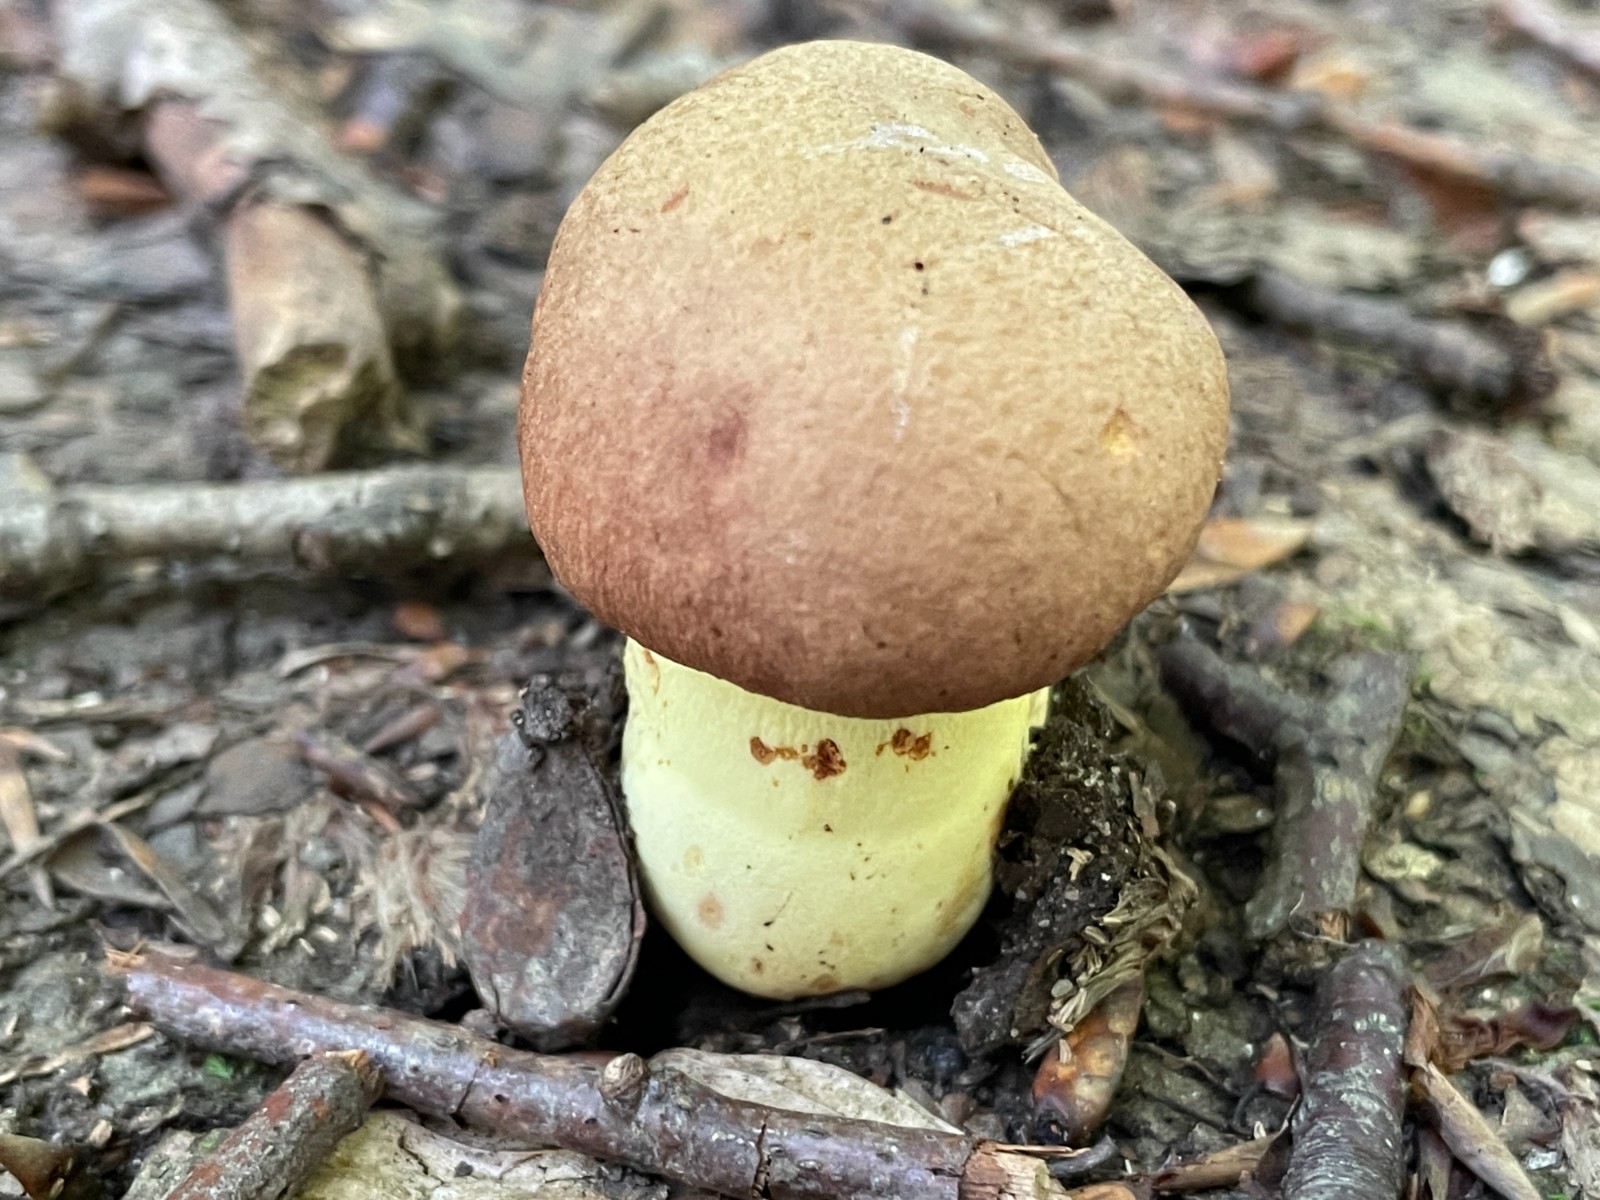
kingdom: Fungi
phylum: Basidiomycota
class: Agaricomycetes
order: Boletales
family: Boletaceae
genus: Butyriboletus
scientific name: Butyriboletus appendiculatus
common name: tenstokket rørhat
